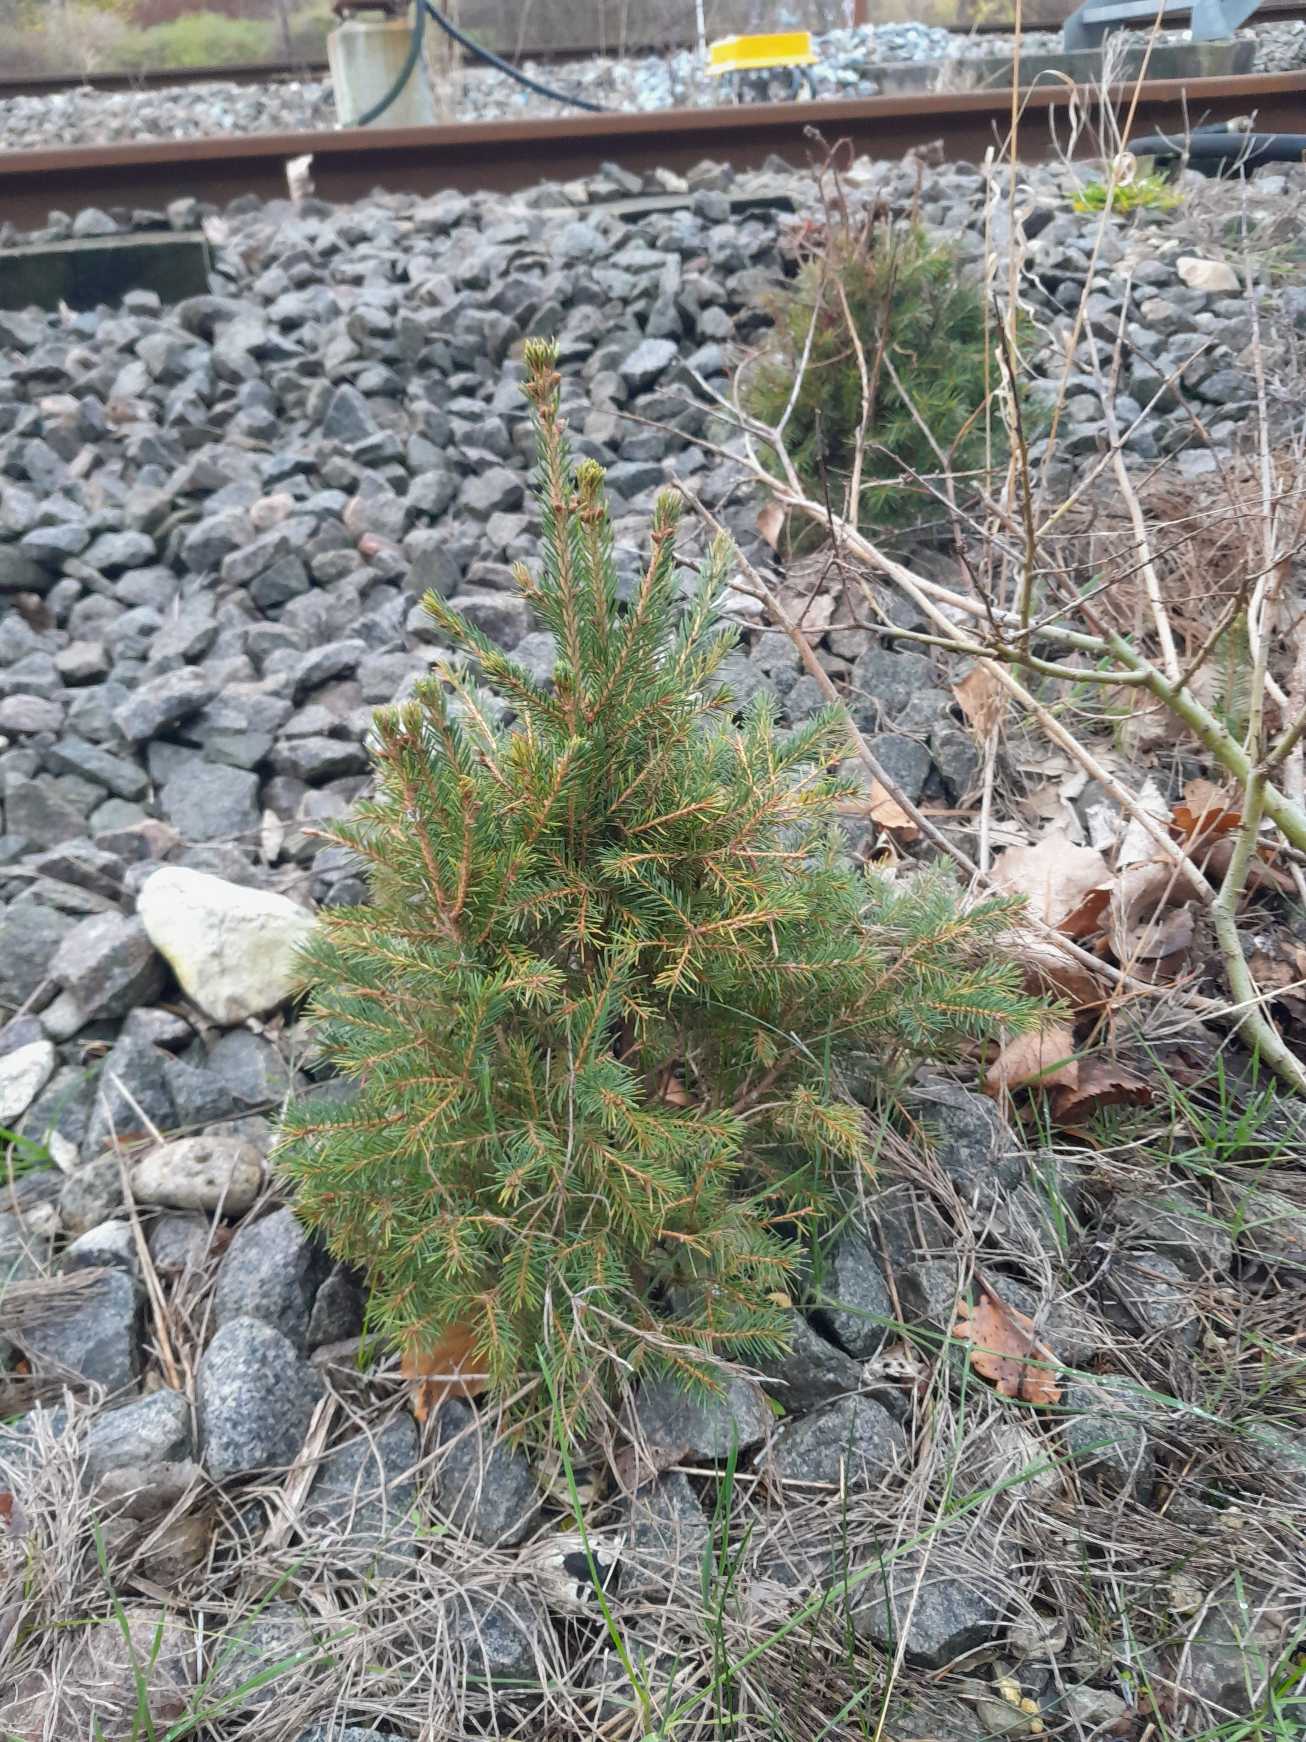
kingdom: Plantae
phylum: Tracheophyta
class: Pinopsida
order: Pinales
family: Pinaceae
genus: Picea
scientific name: Picea abies
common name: Rød-gran
